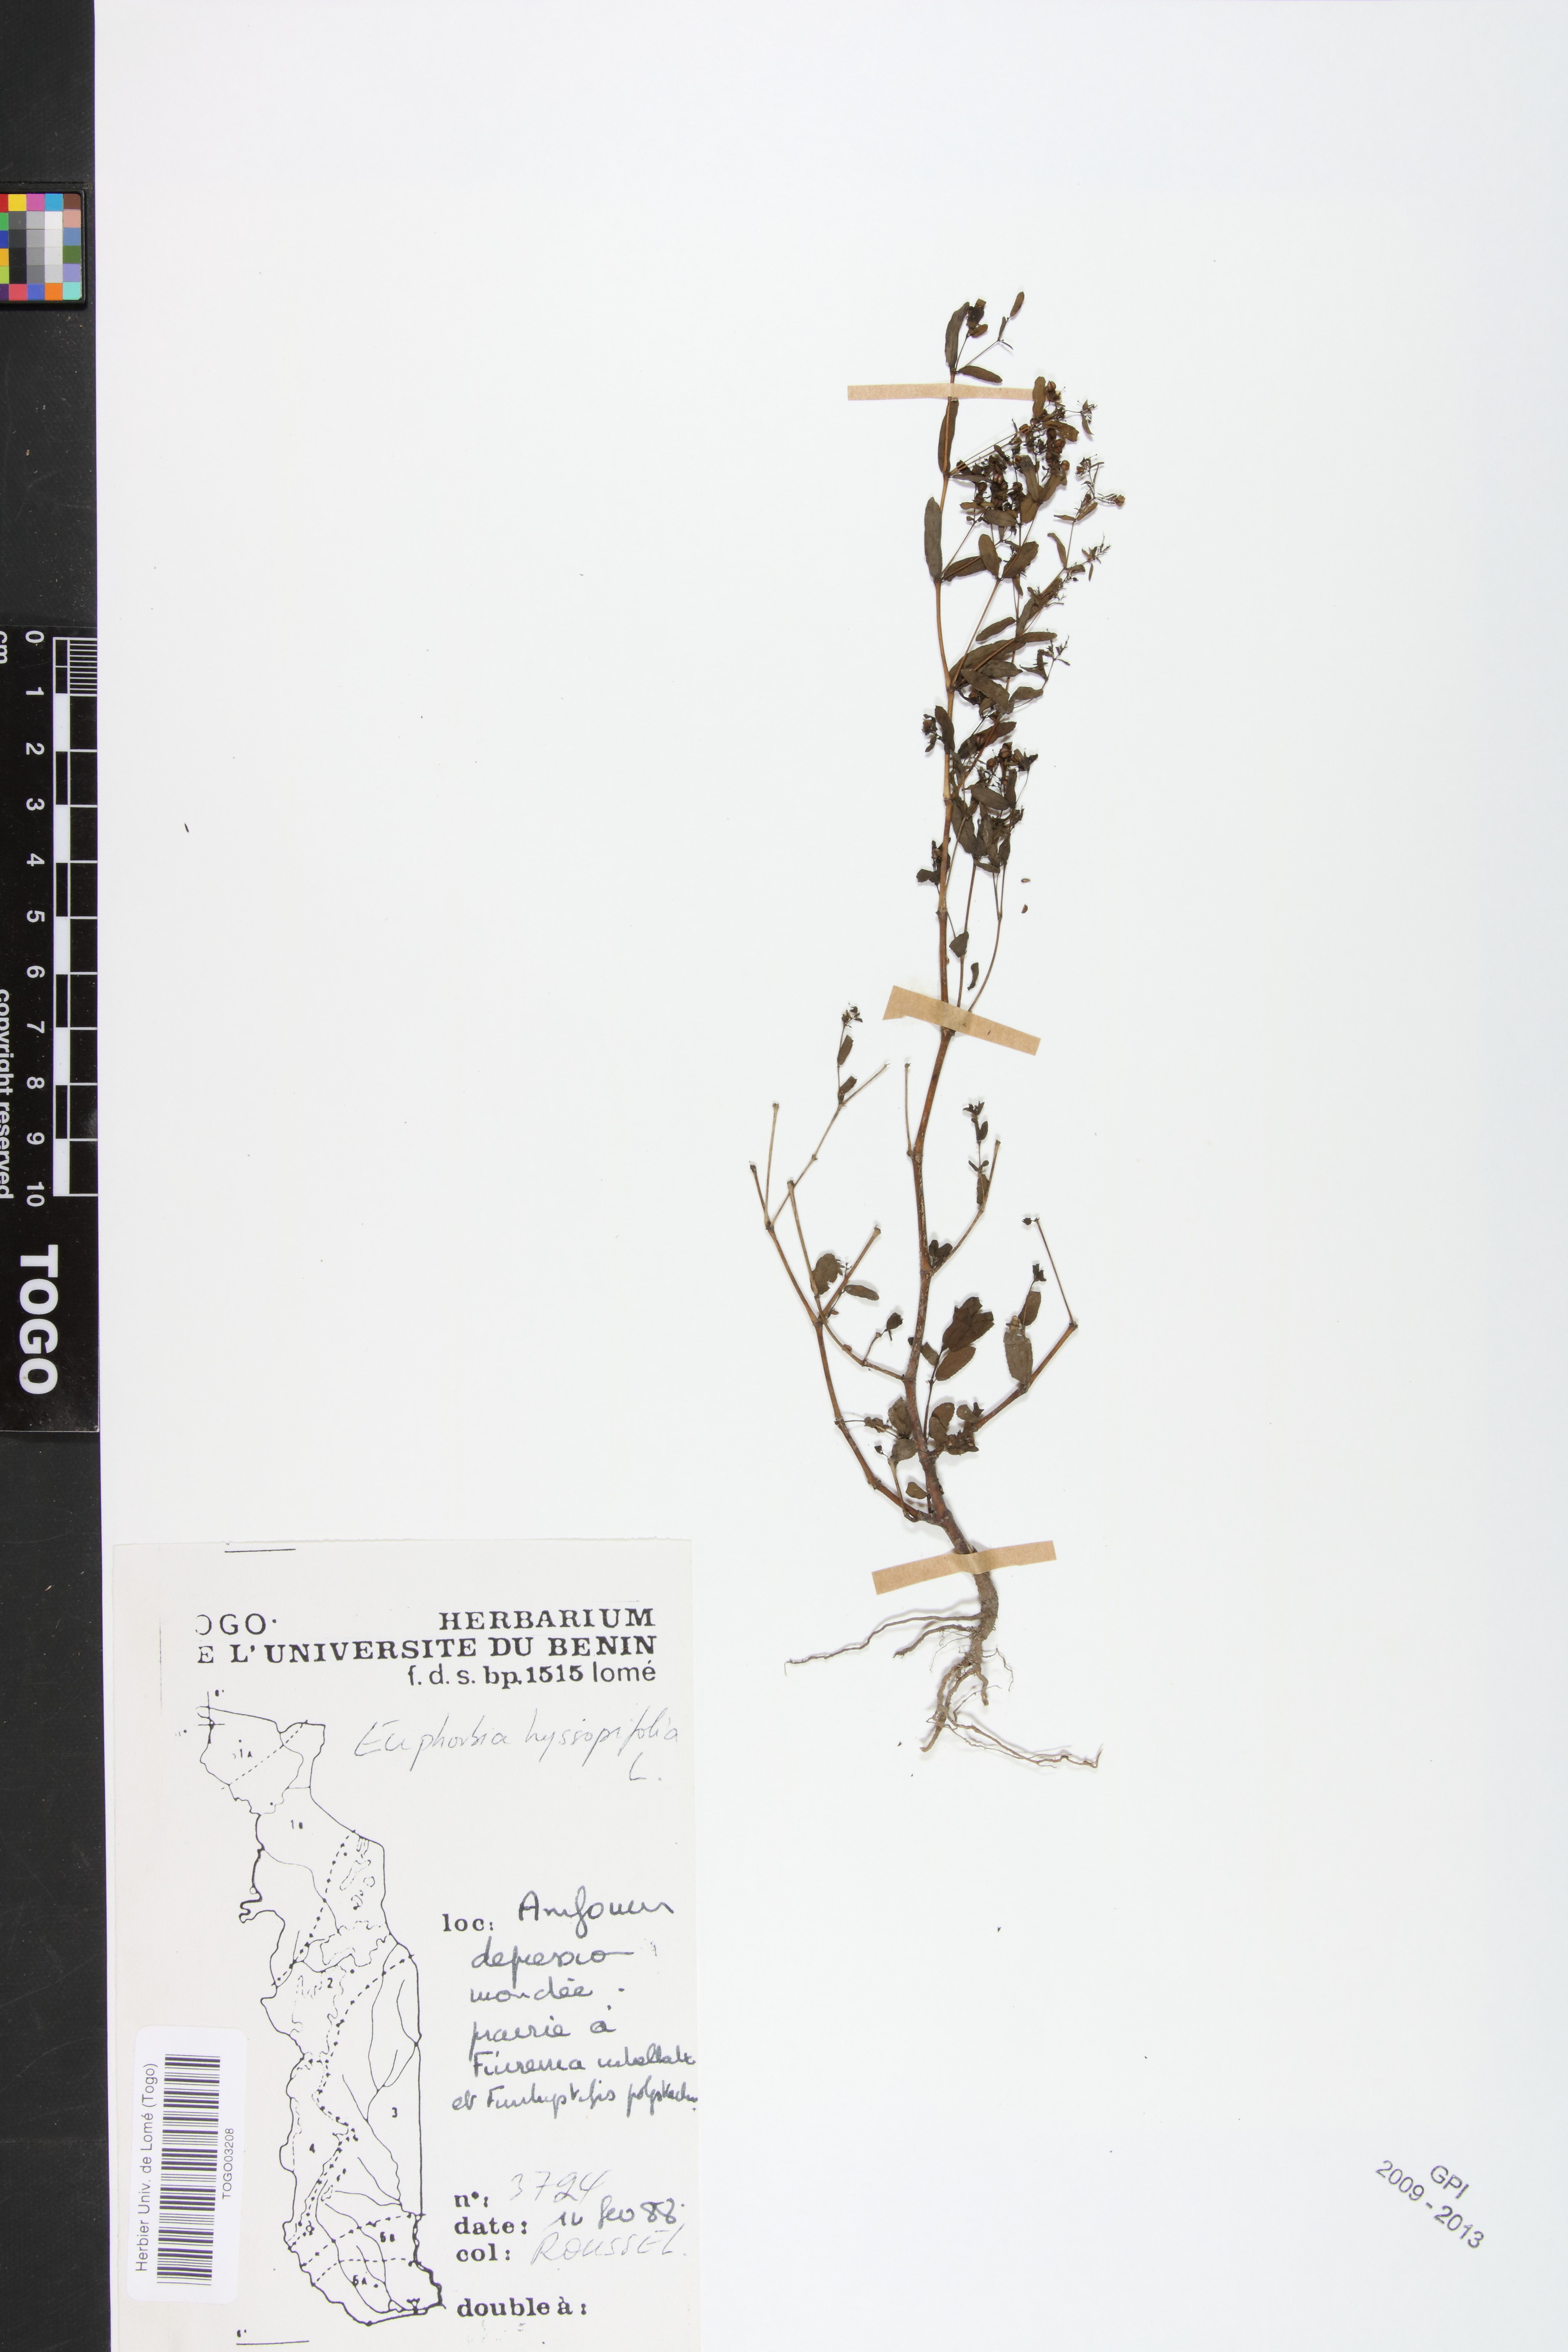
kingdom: Plantae
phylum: Tracheophyta
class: Magnoliopsida
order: Malpighiales
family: Euphorbiaceae
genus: Euphorbia
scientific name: Euphorbia hyssopifolia
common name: Hyssopleaf sandmat
